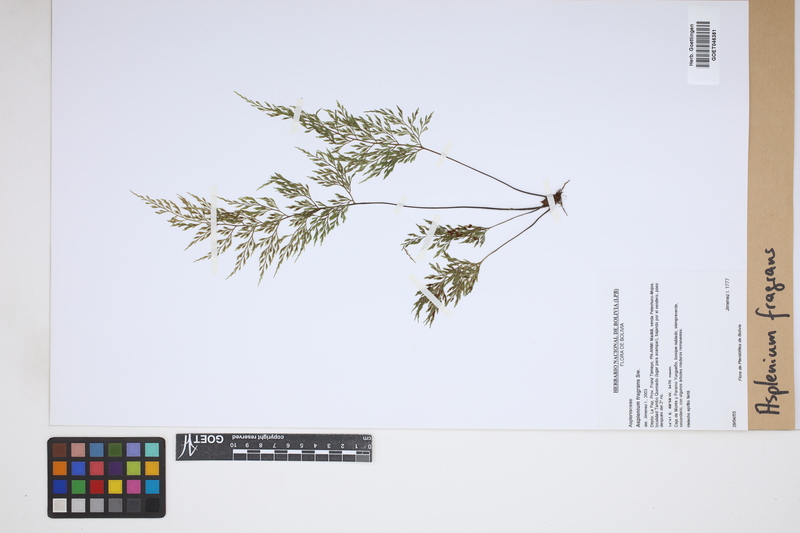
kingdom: Plantae
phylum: Tracheophyta
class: Polypodiopsida
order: Polypodiales
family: Aspleniaceae
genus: Asplenium
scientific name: Asplenium fragrans
